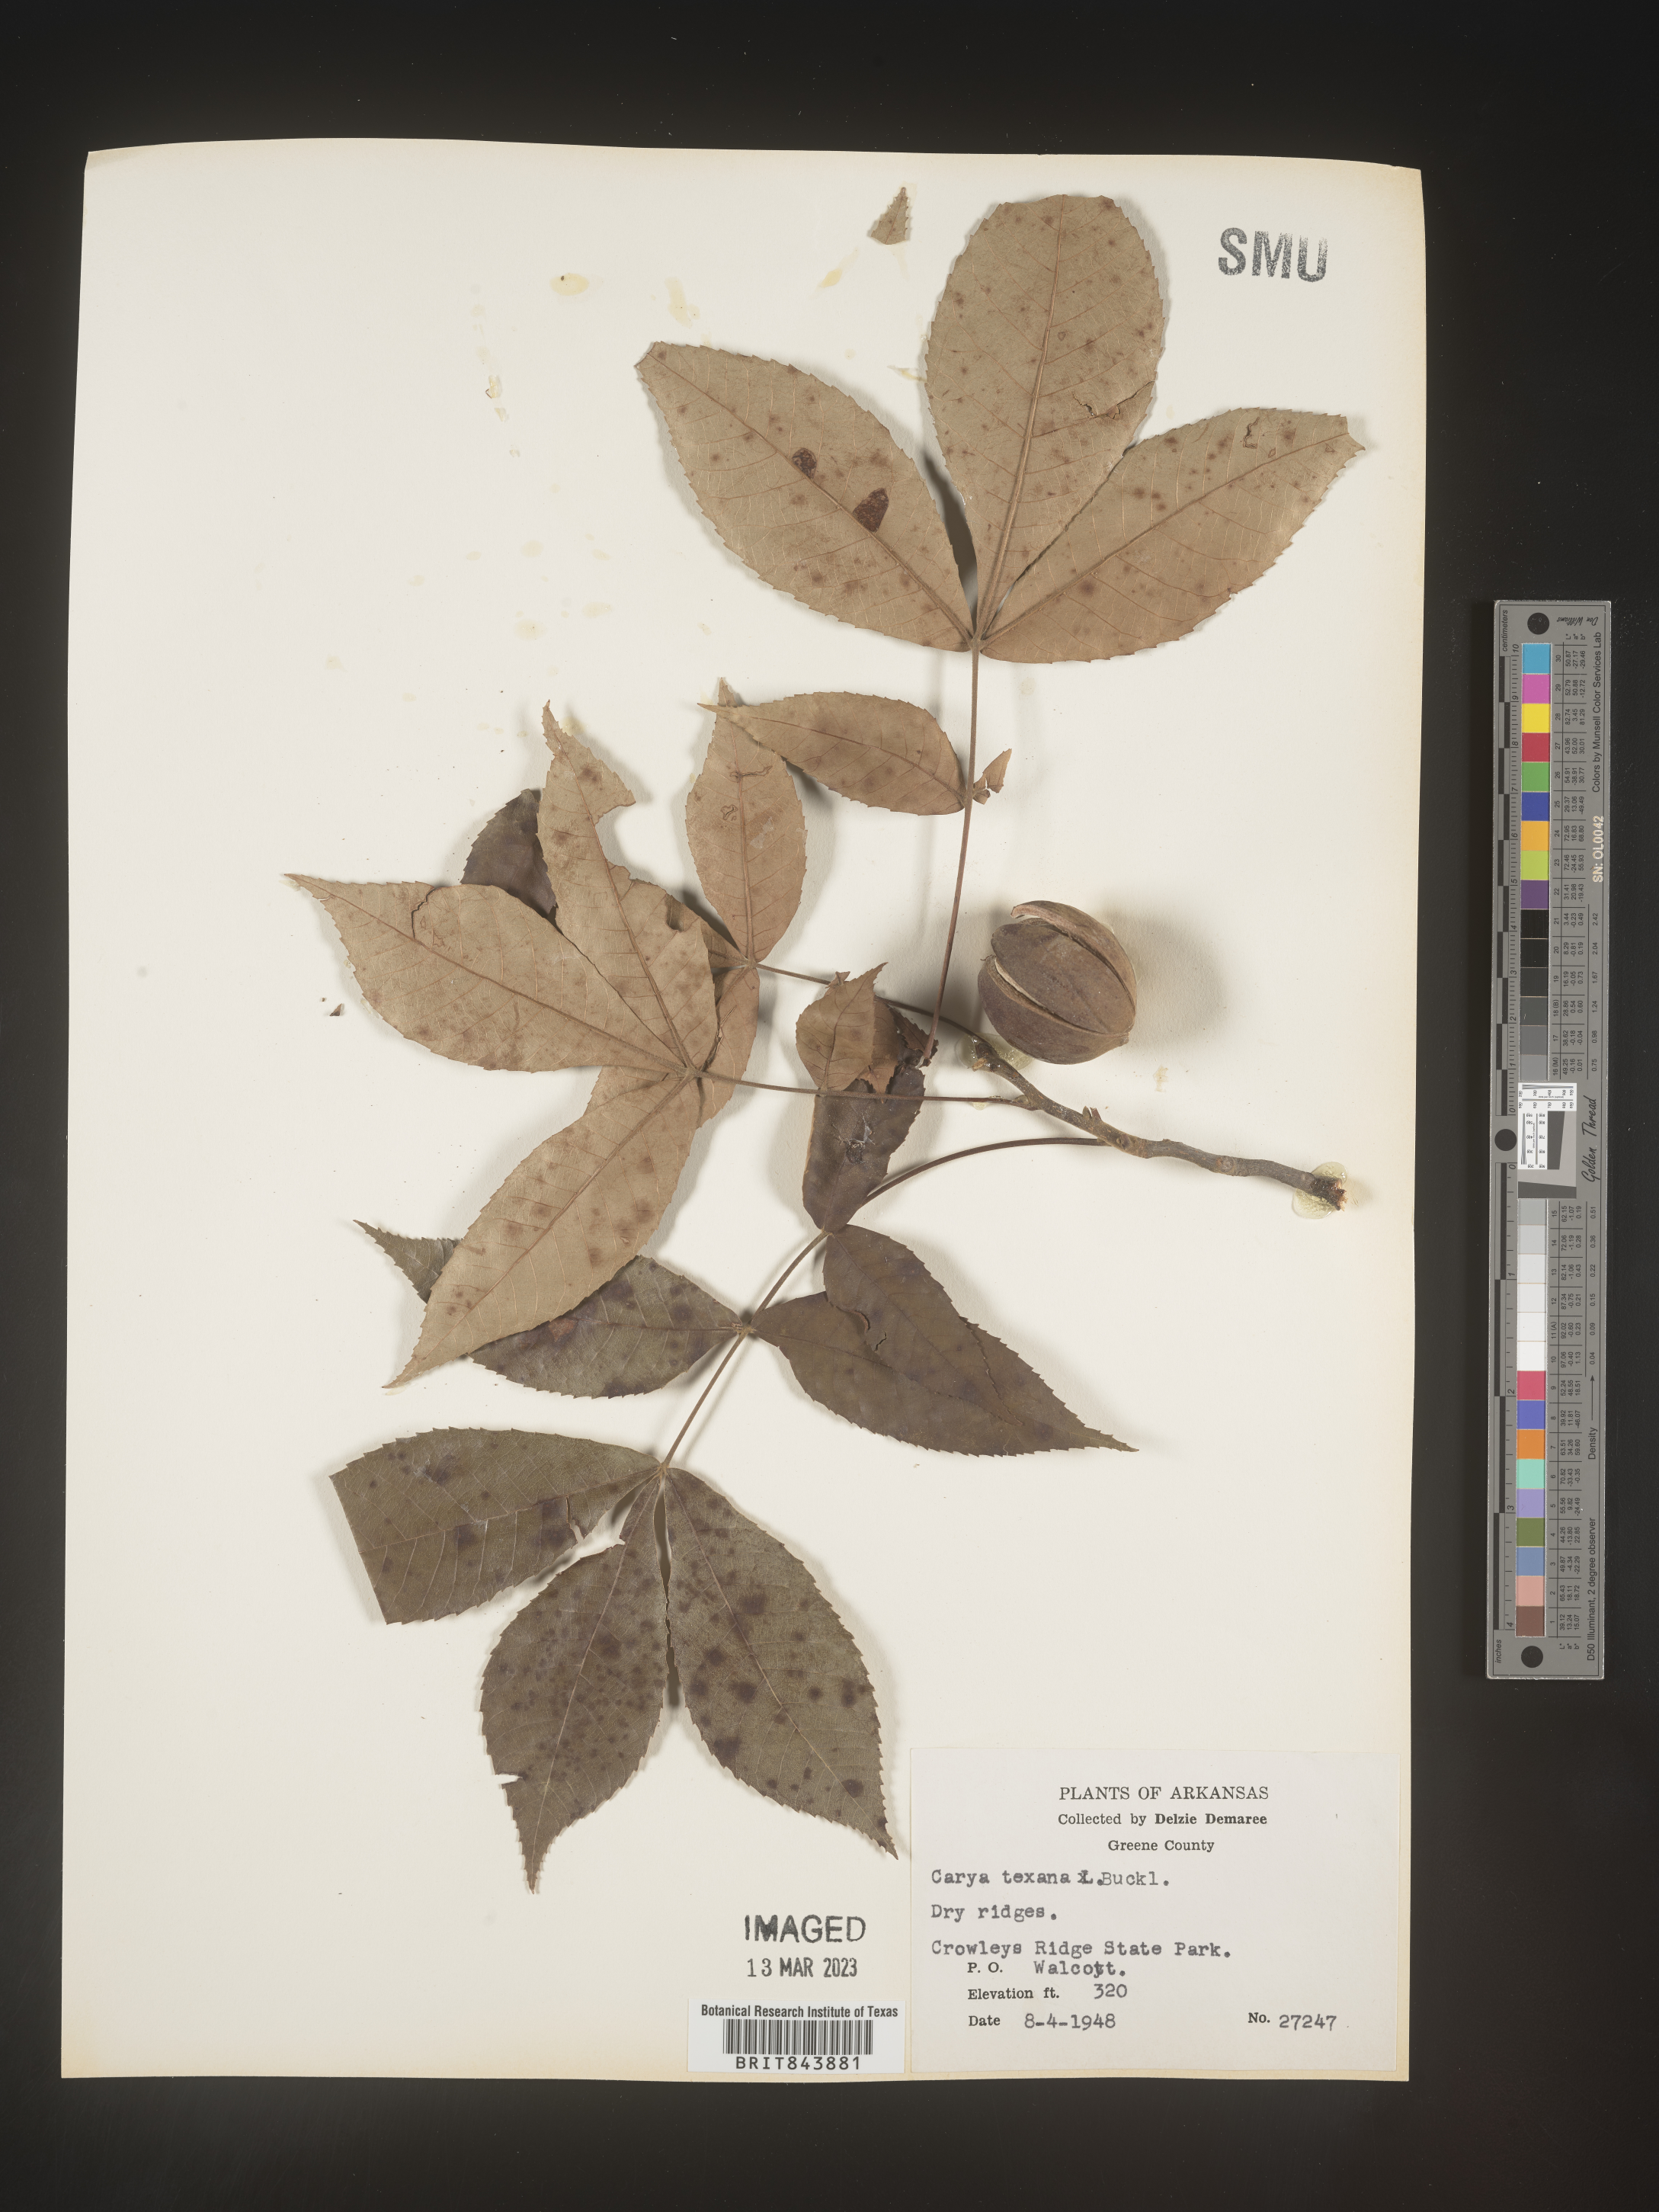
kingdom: Plantae
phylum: Tracheophyta
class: Magnoliopsida
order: Fagales
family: Juglandaceae
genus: Carya
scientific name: Carya texana
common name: Black hickory
